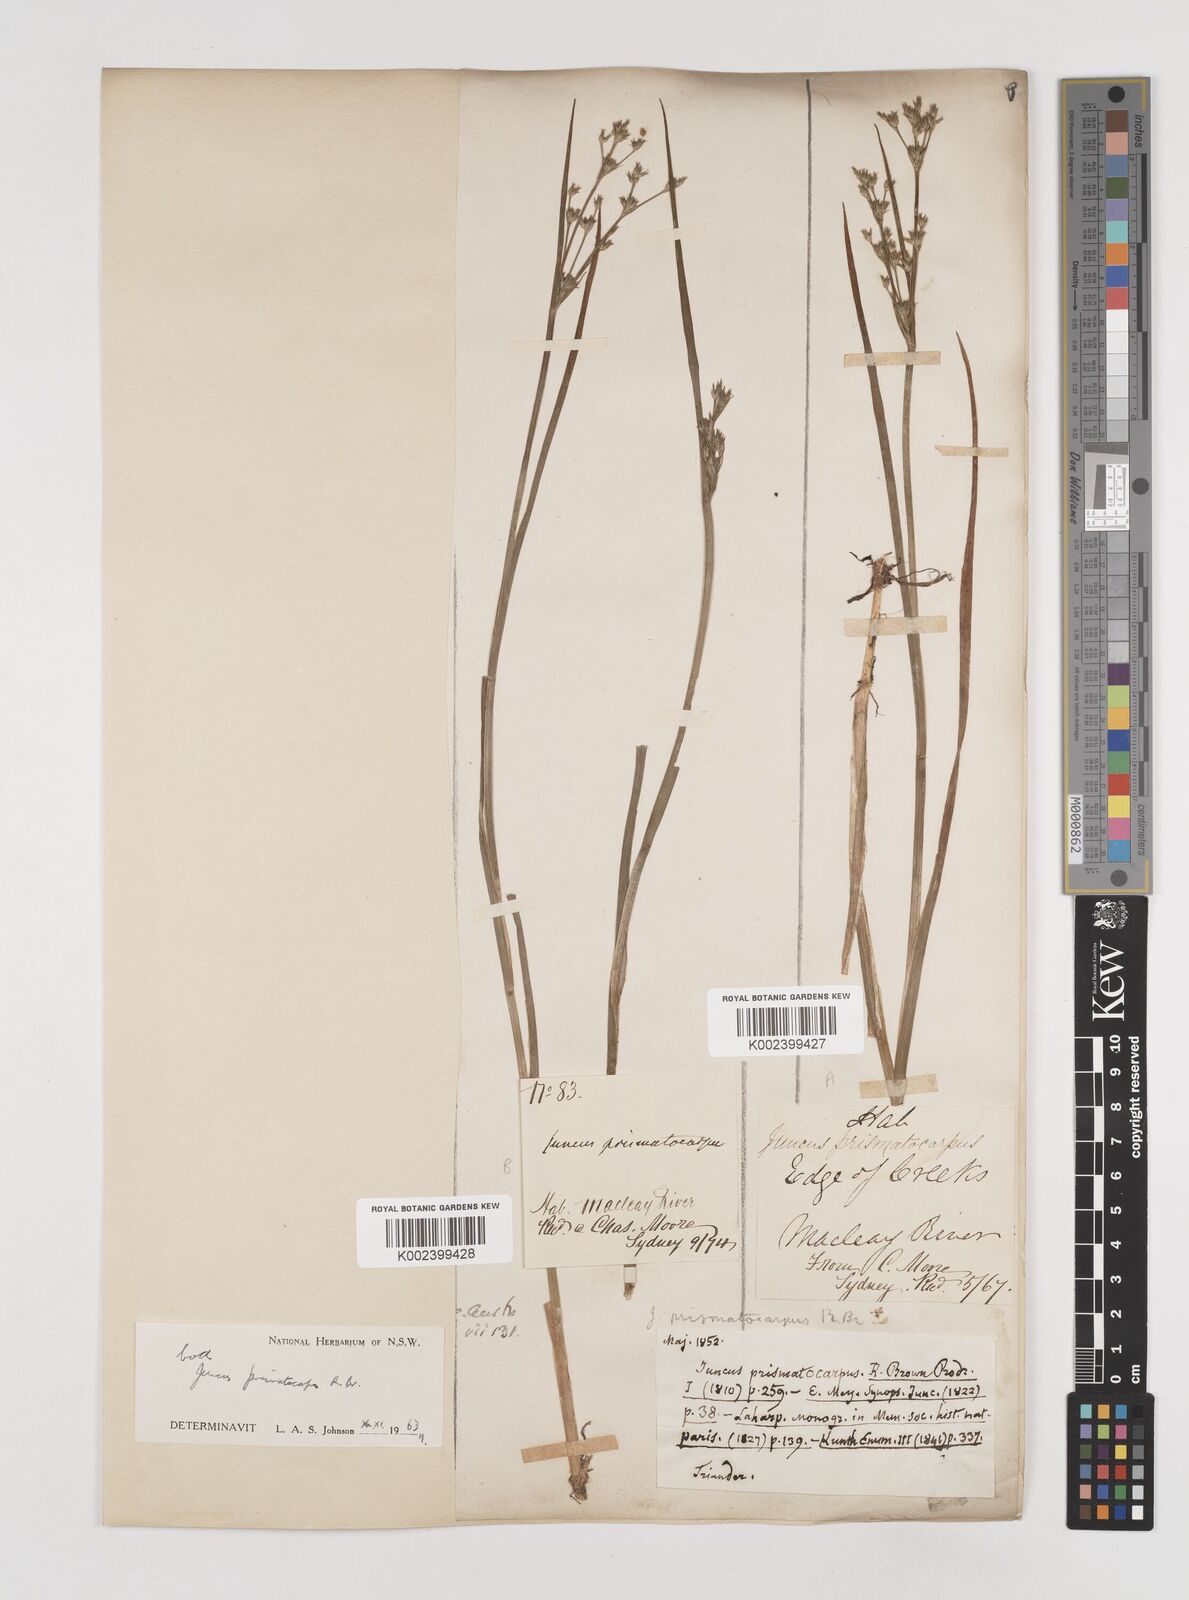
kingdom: Plantae
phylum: Tracheophyta
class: Liliopsida
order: Poales
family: Juncaceae
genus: Juncus
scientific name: Juncus prismatocarpus
